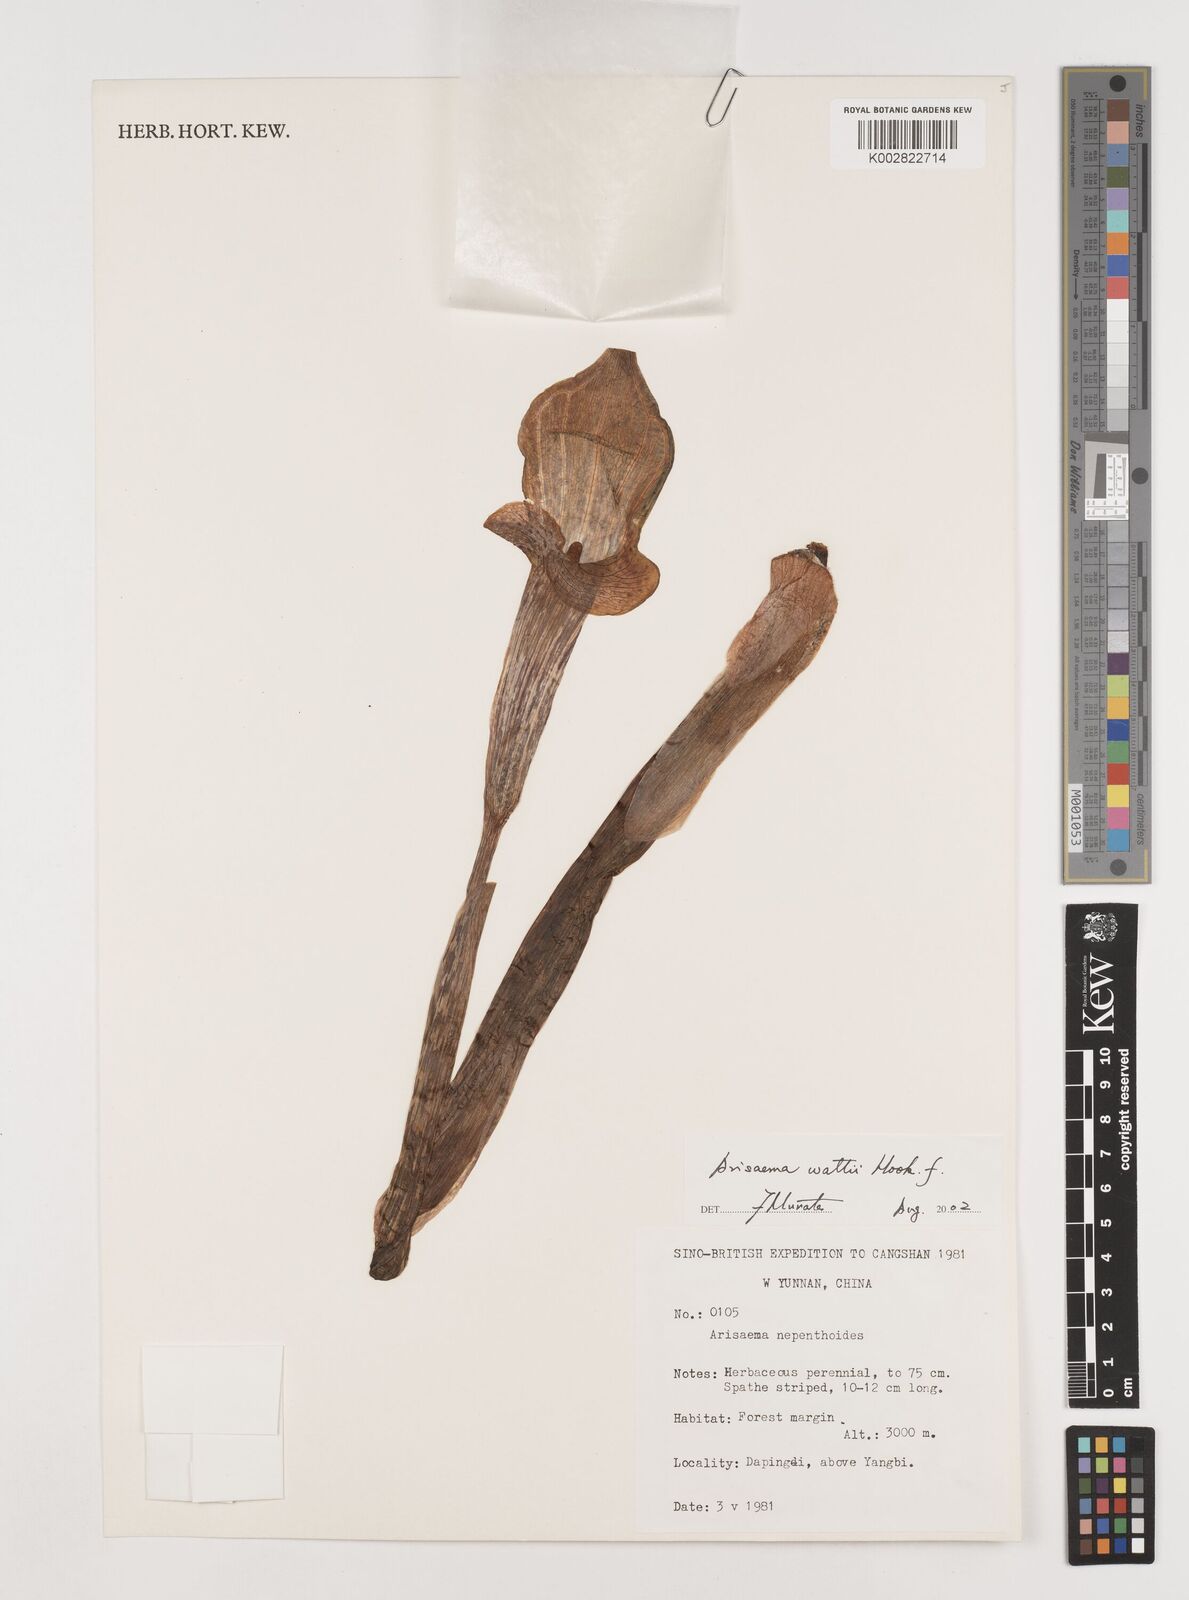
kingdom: Plantae
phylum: Tracheophyta
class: Liliopsida
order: Alismatales
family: Araceae
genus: Arisaema
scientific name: Arisaema wattii
